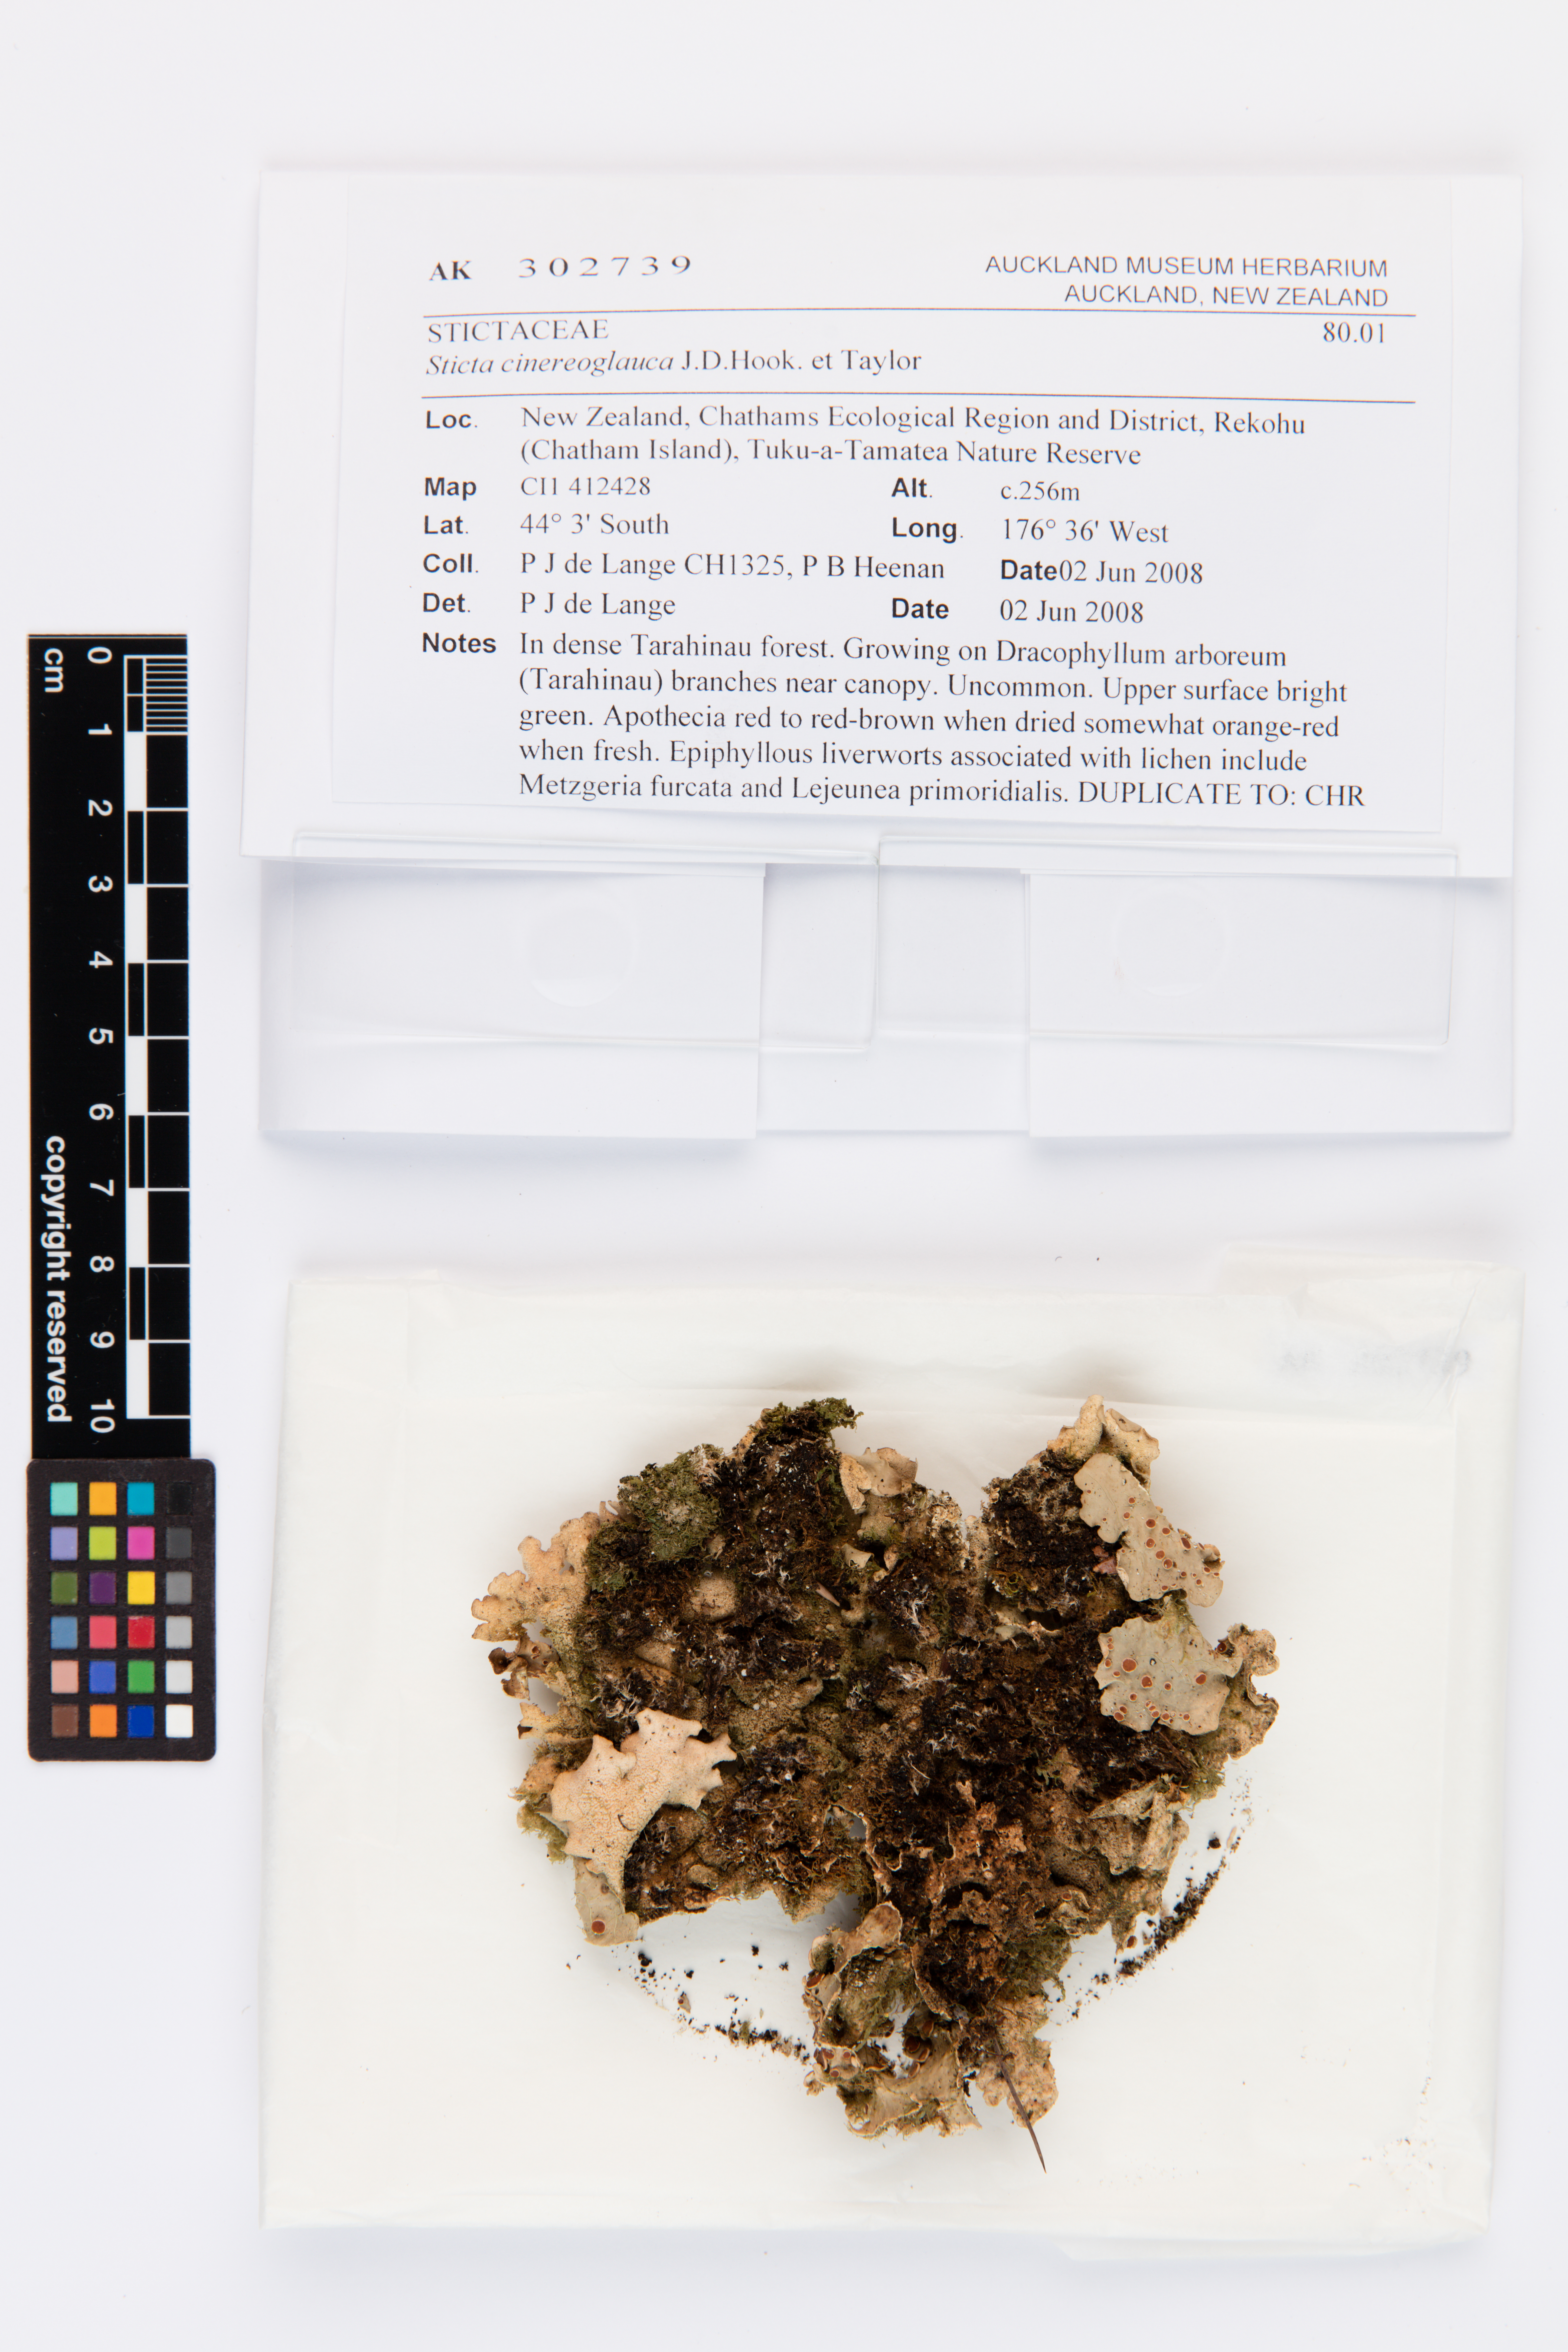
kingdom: Fungi
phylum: Ascomycota
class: Lecanoromycetes
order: Peltigerales
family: Lobariaceae
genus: Sticta
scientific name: Sticta cinereoglauca
